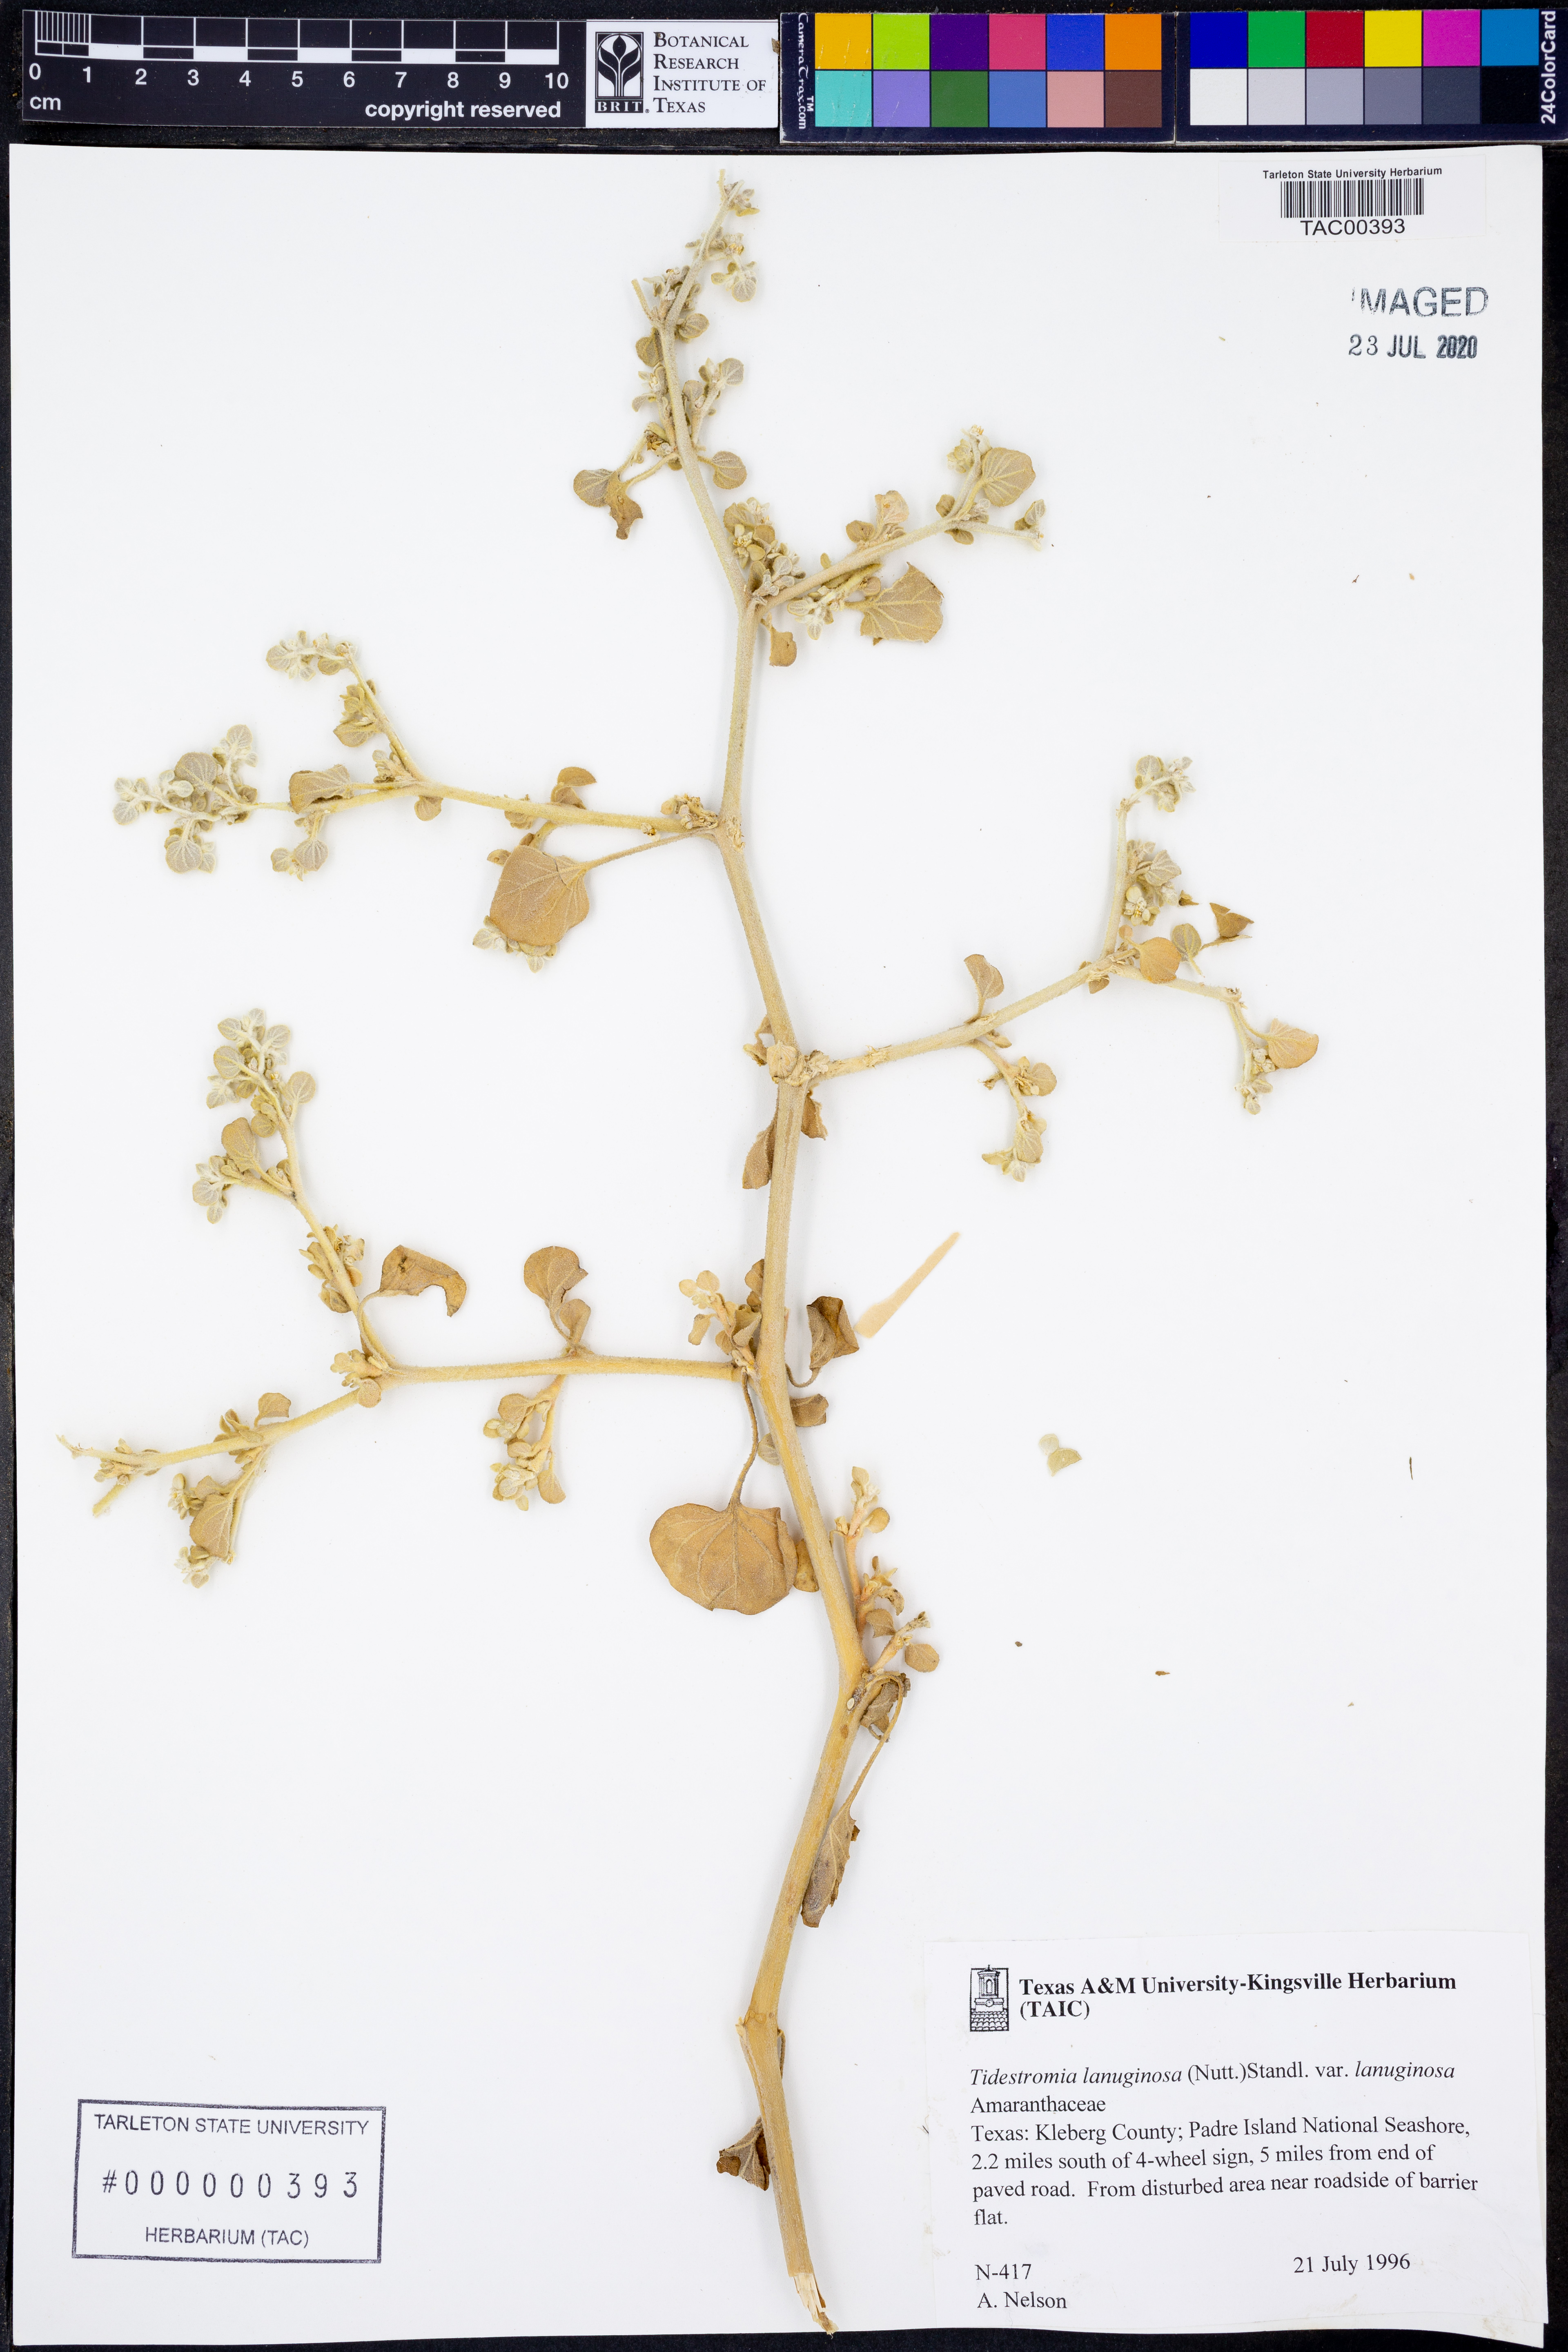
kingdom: Plantae
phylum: Tracheophyta
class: Magnoliopsida
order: Caryophyllales
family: Amaranthaceae
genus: Tidestromia
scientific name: Tidestromia lanuginosa
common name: Woolly tidestromia
